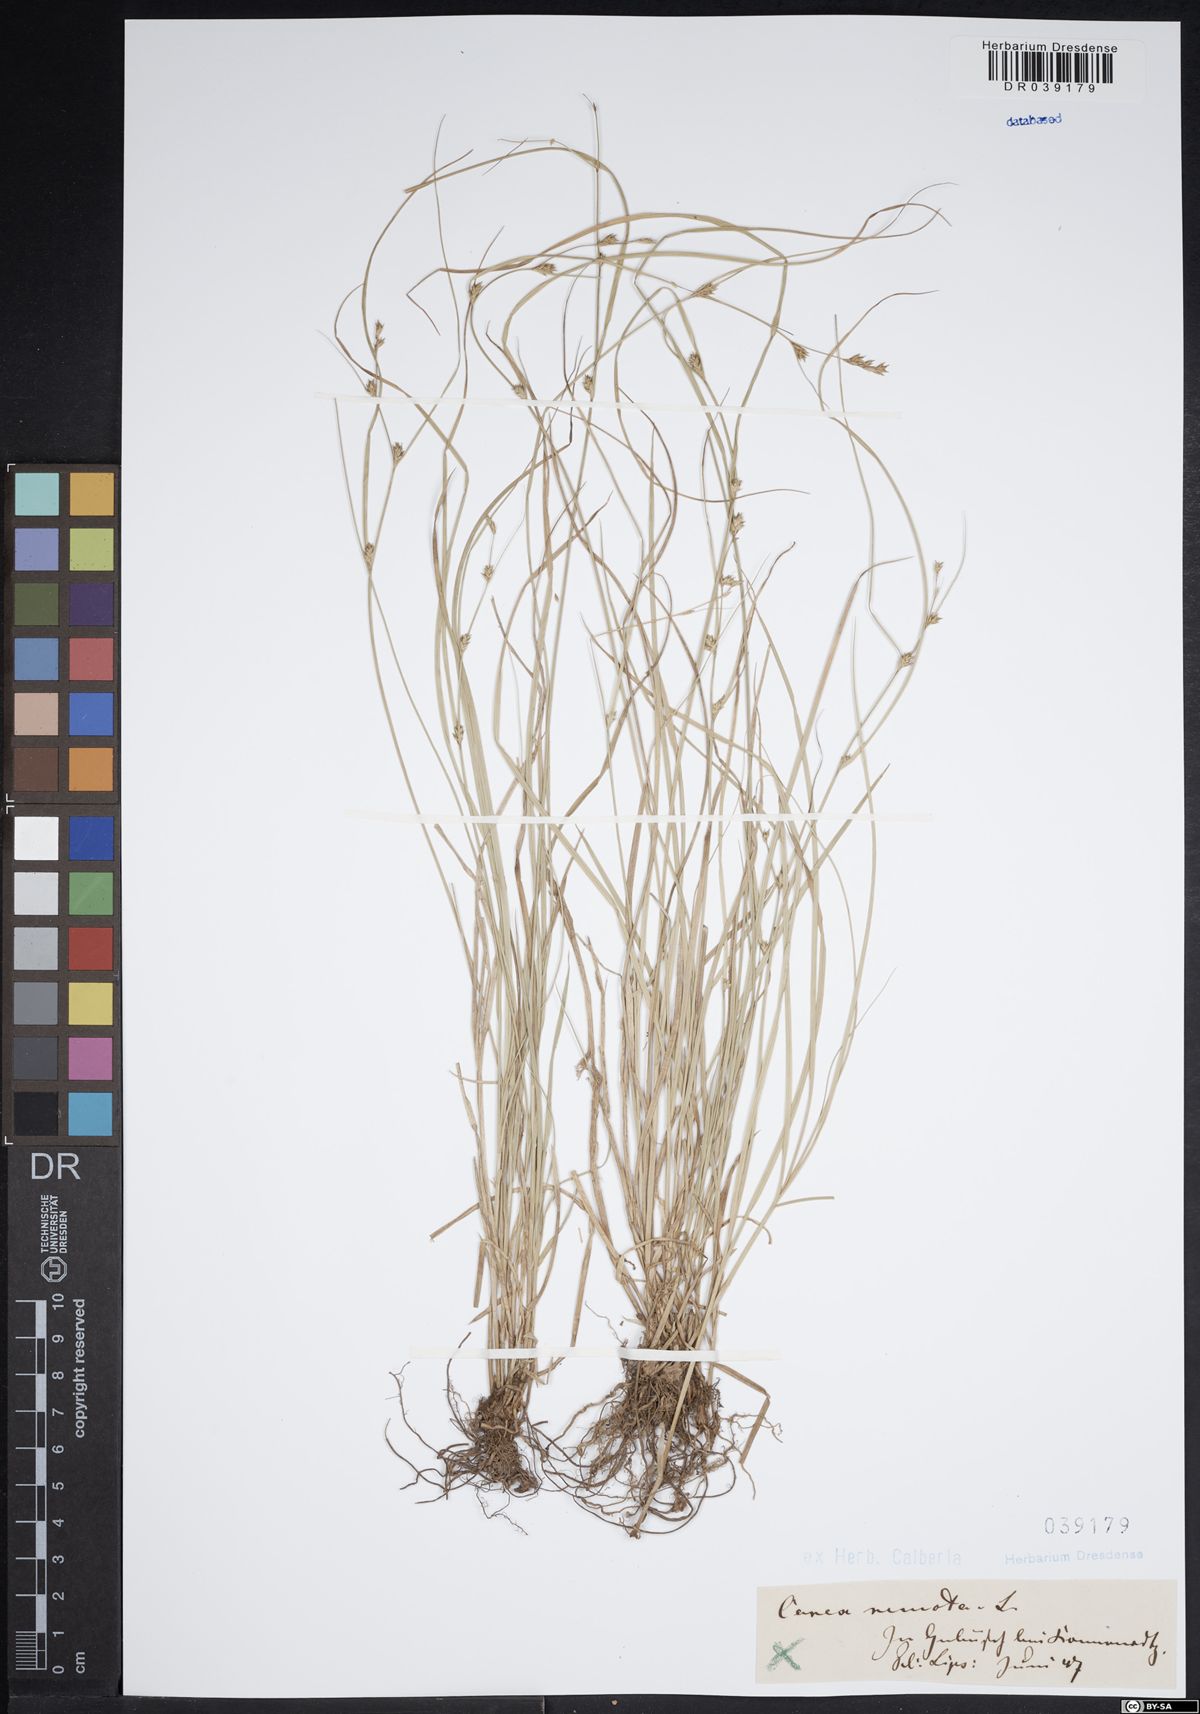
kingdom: Plantae
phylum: Tracheophyta
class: Liliopsida
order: Poales
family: Cyperaceae
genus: Carex
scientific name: Carex remota
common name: Remote sedge
